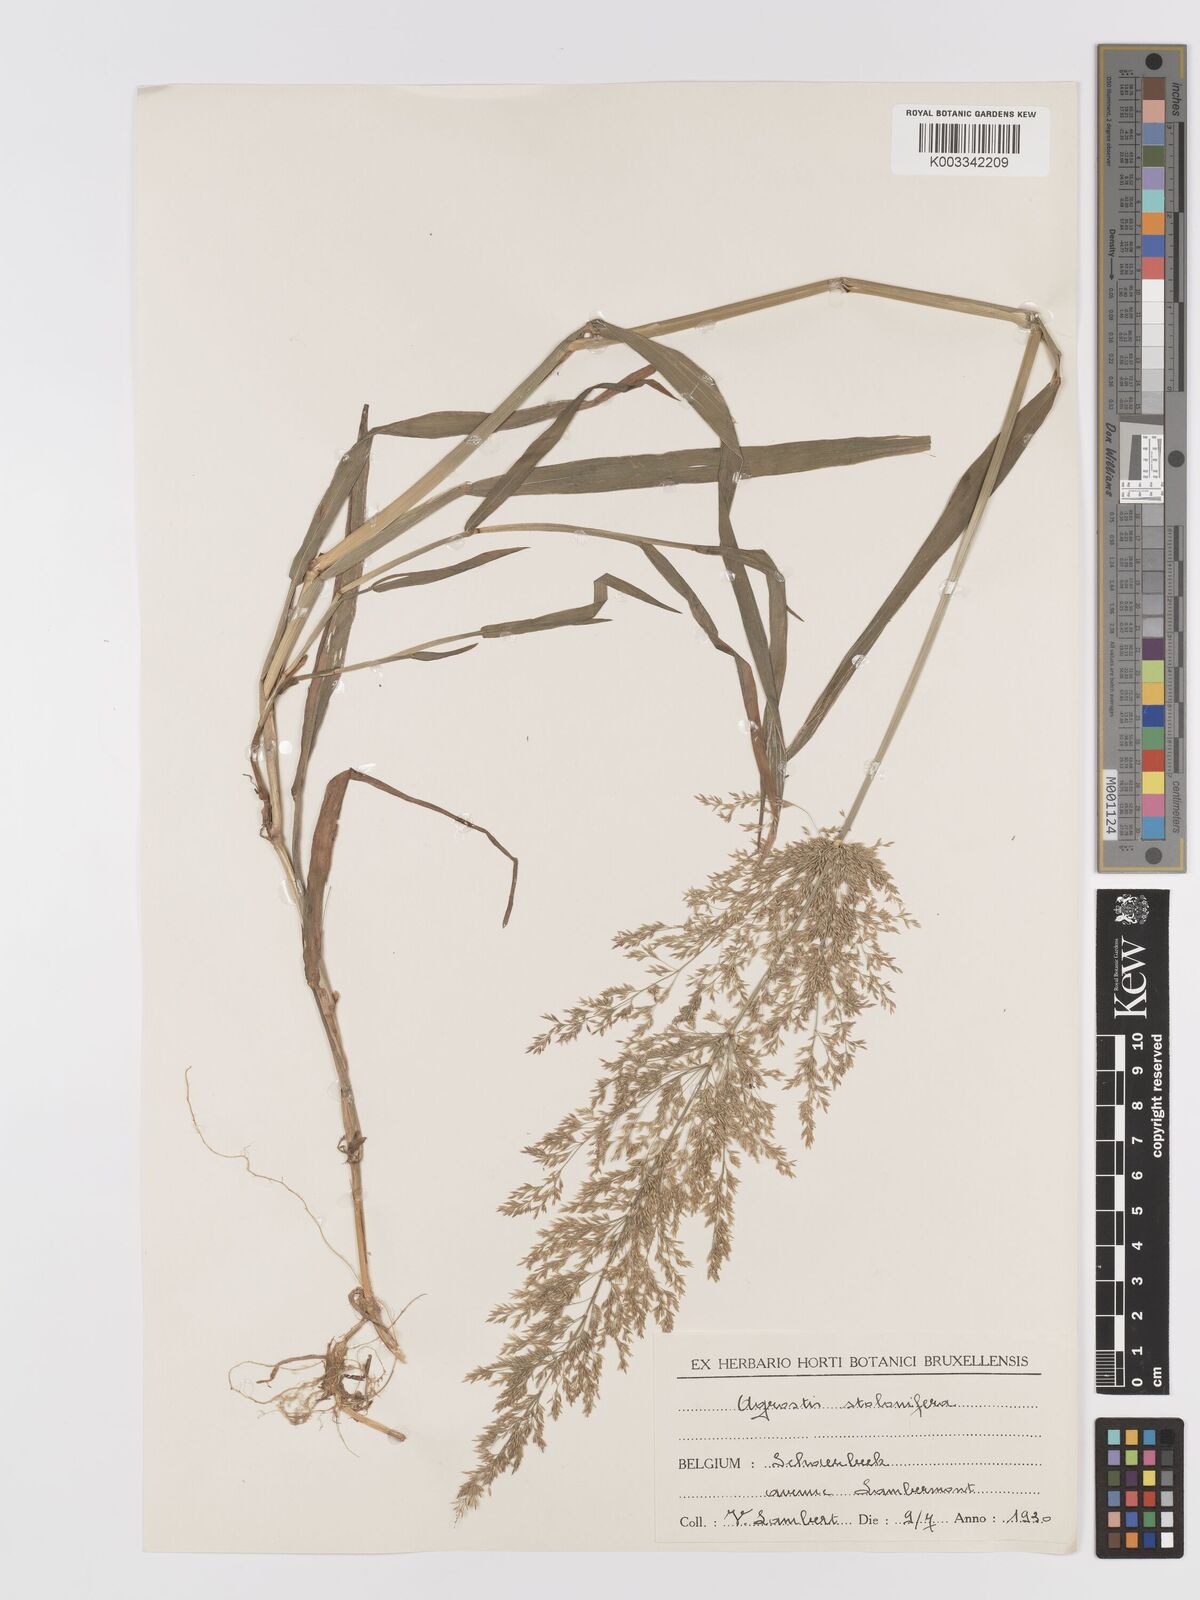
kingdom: Plantae
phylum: Tracheophyta
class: Liliopsida
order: Poales
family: Poaceae
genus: Agrostis
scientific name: Agrostis stolonifera
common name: Creeping bentgrass
